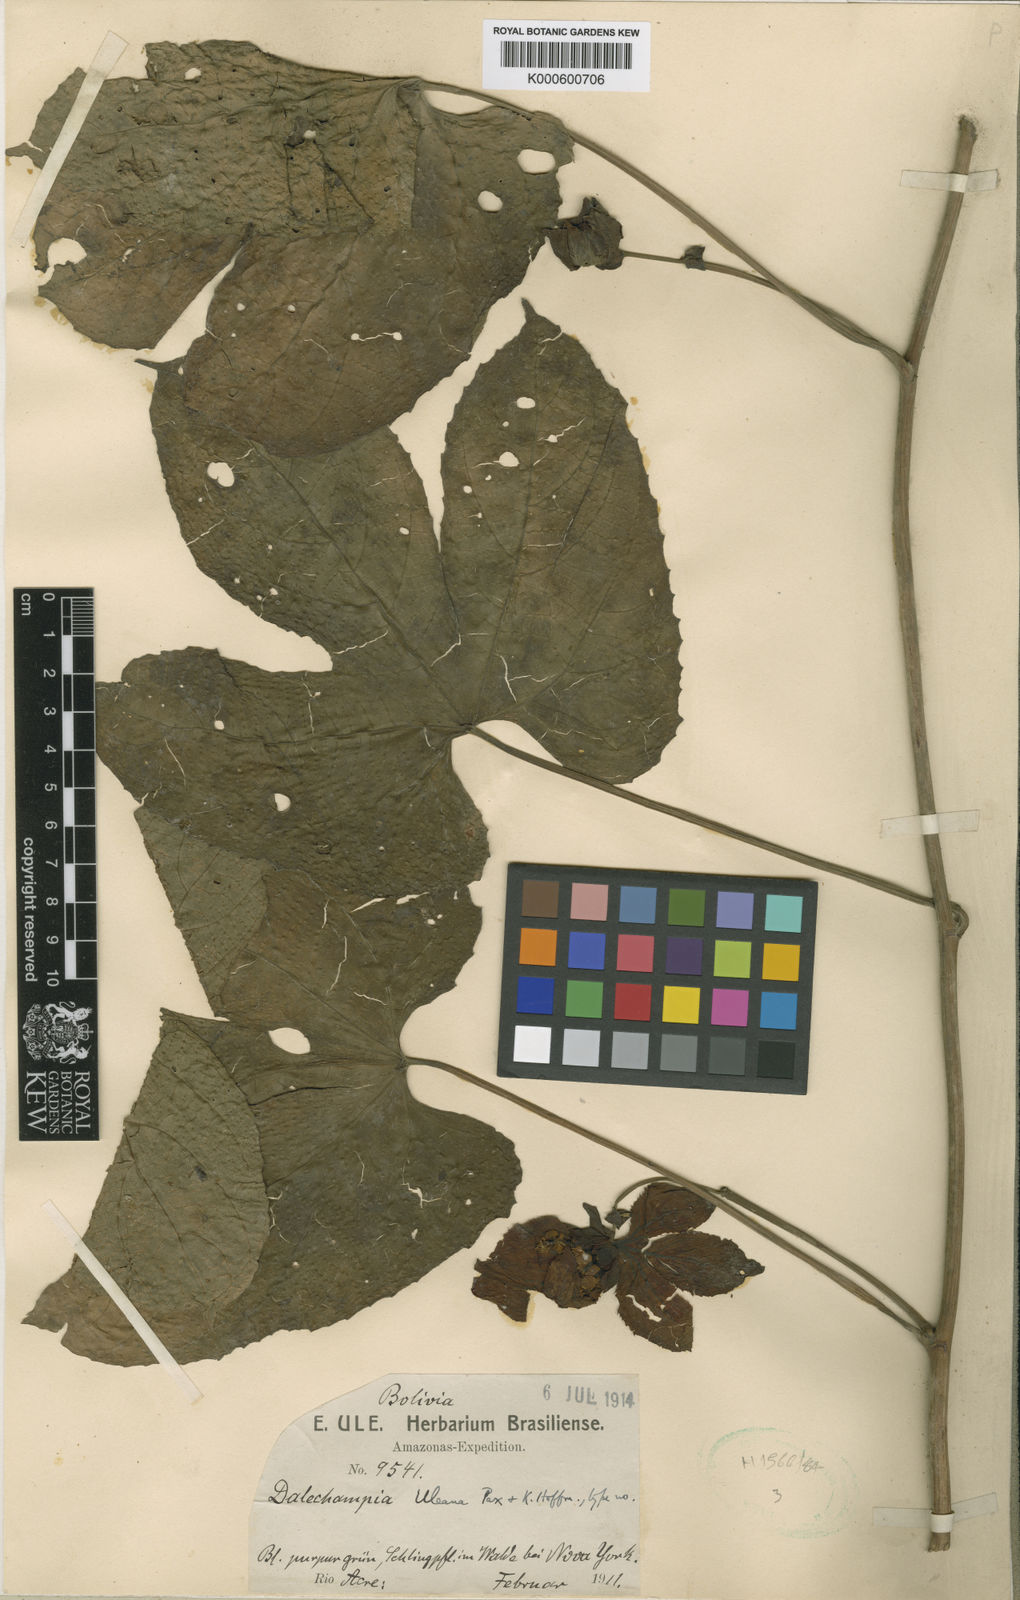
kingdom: Plantae
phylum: Tracheophyta
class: Magnoliopsida
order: Malpighiales
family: Euphorbiaceae
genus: Dalechampia
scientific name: Dalechampia cujabensis
